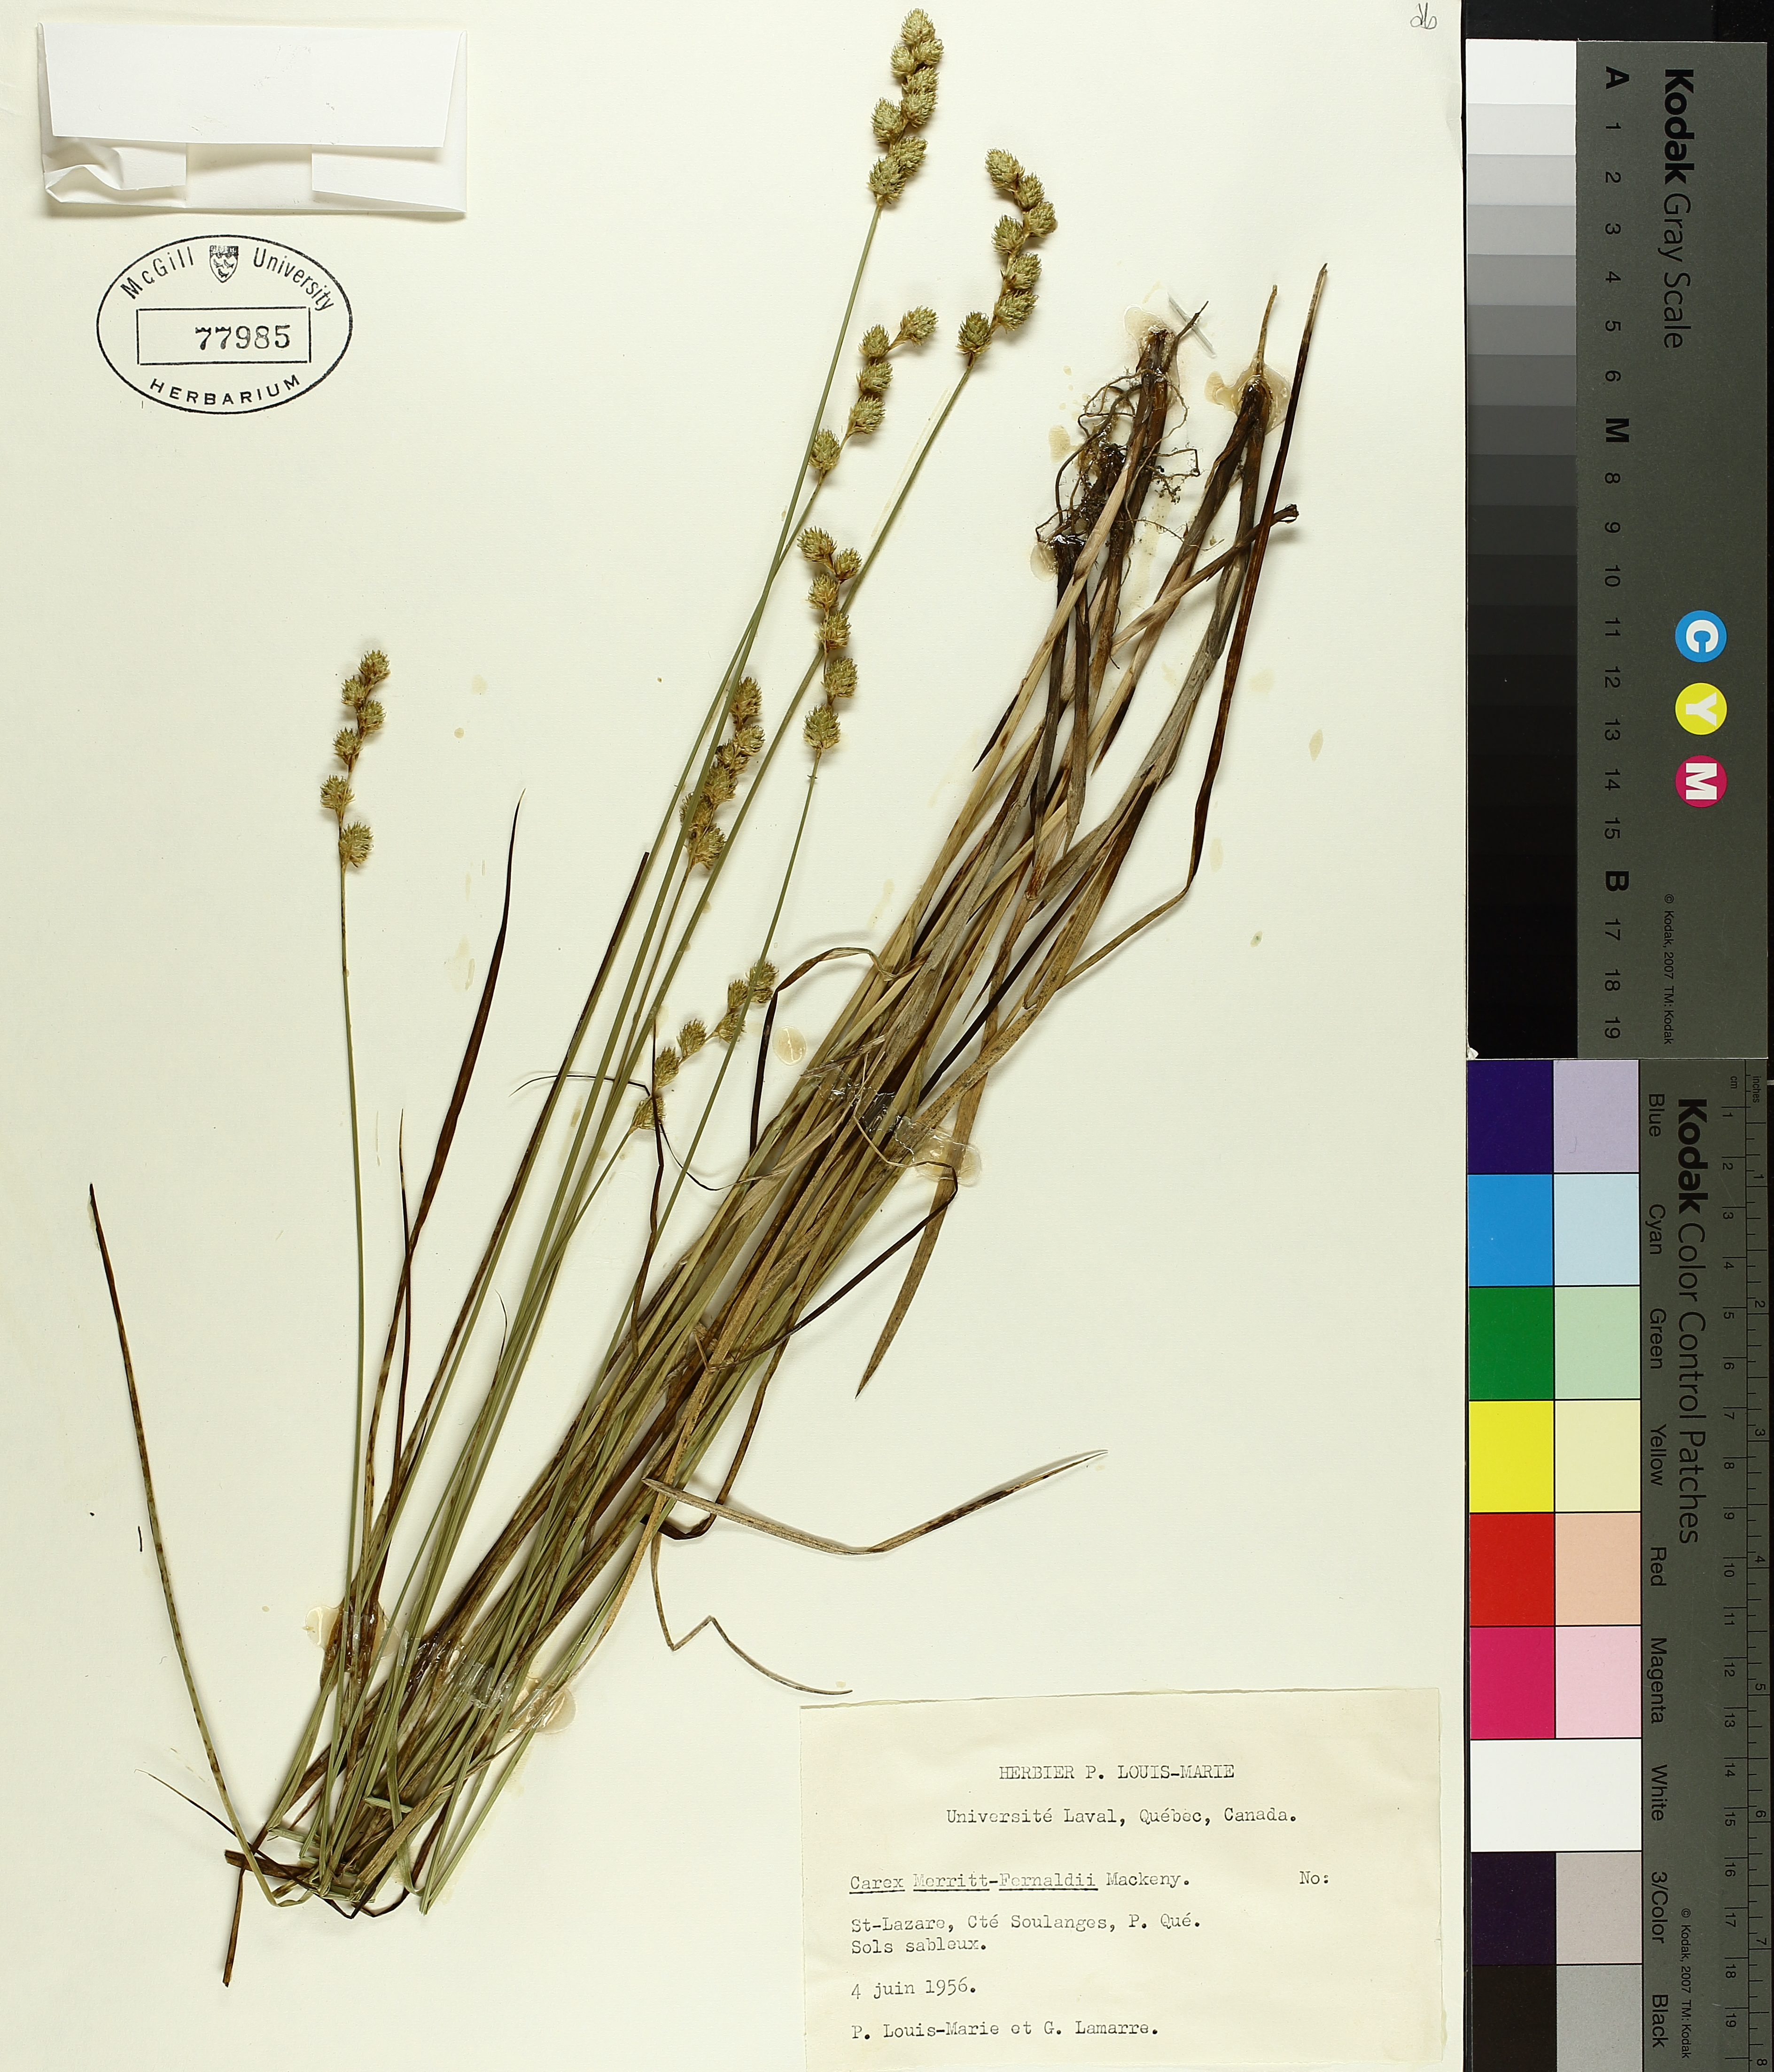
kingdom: Plantae
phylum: Tracheophyta
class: Liliopsida
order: Poales
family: Cyperaceae
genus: Carex
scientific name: Carex merritt-fernaldii
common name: Fernald's oval sedge
